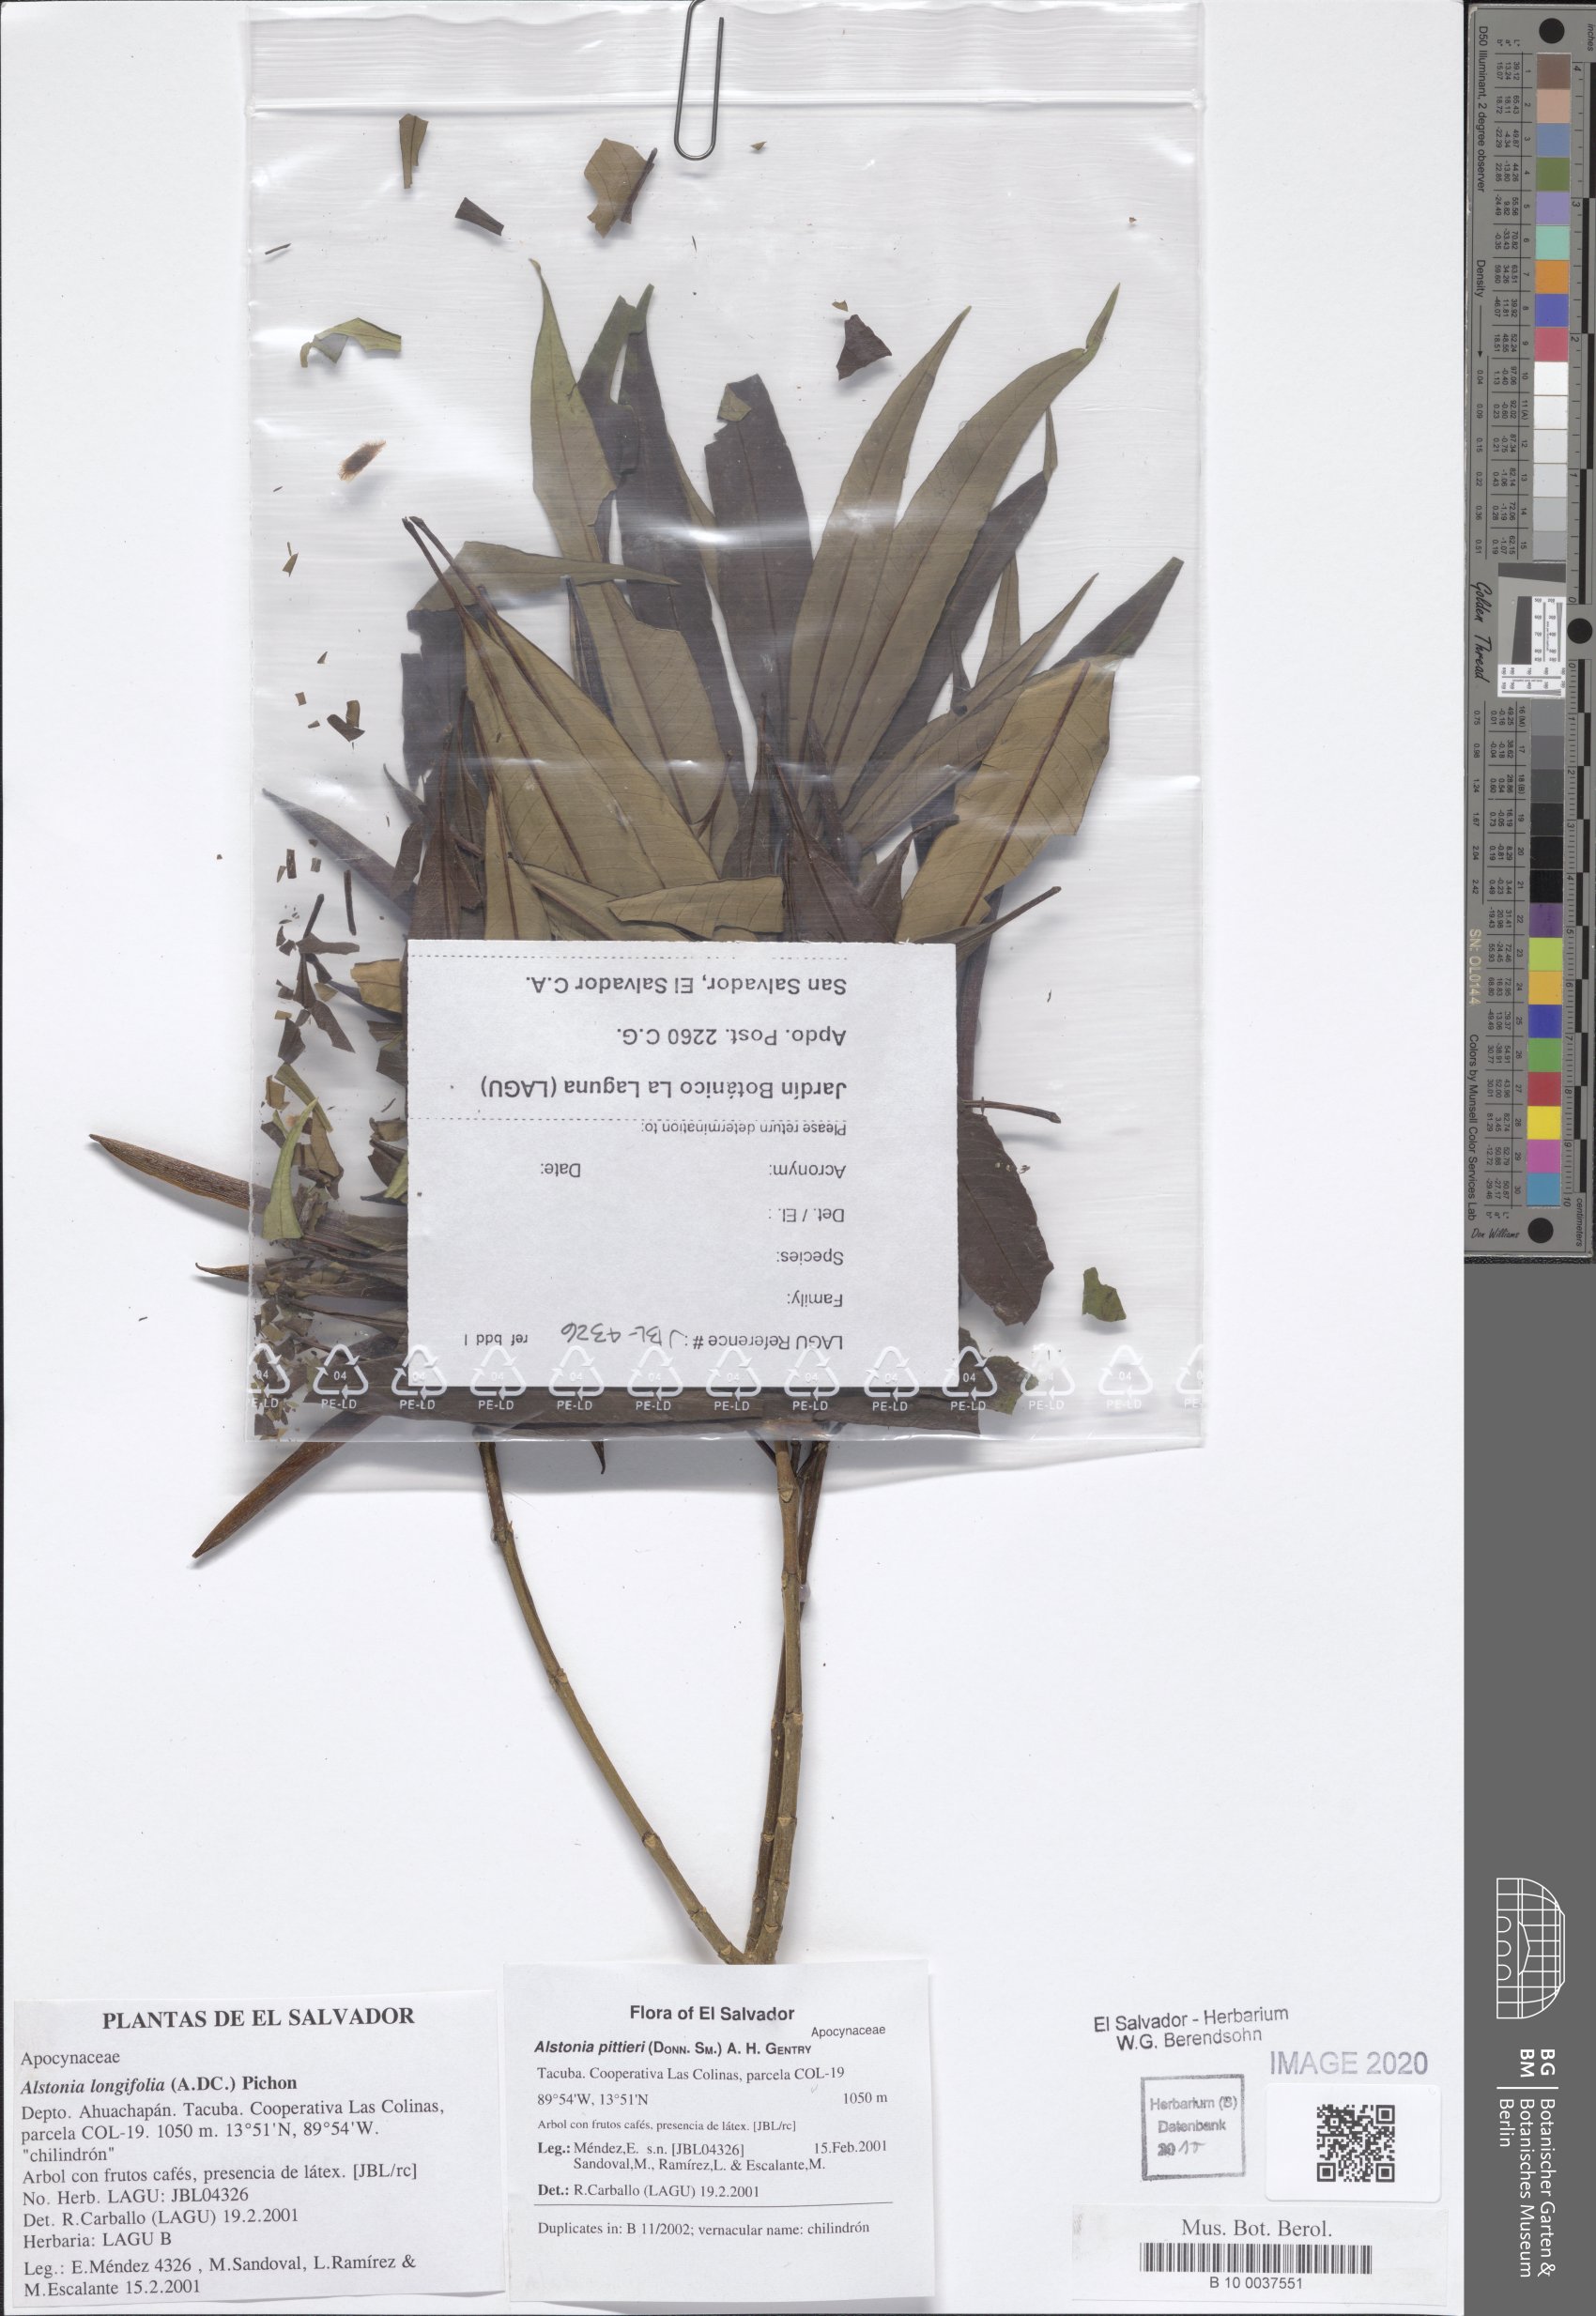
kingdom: Plantae
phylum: Tracheophyta
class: Magnoliopsida
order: Gentianales
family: Apocynaceae
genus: Tonduzia
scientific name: Tonduzia longifolia
